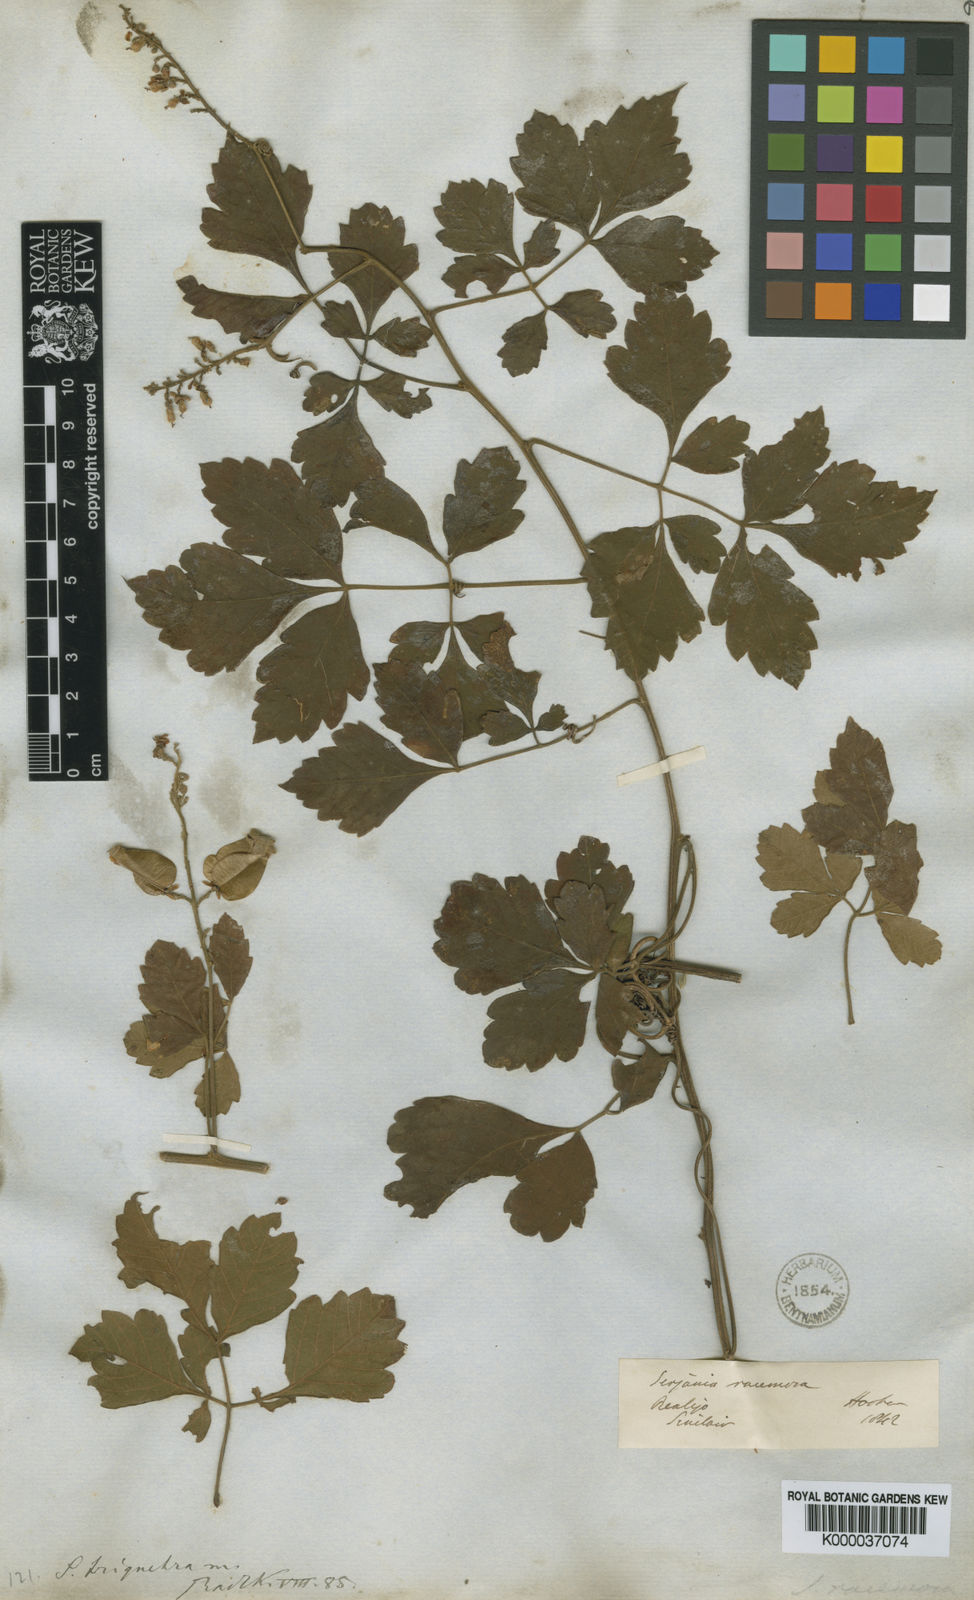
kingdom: Plantae
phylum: Tracheophyta
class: Magnoliopsida
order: Sapindales
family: Sapindaceae
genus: Serjania
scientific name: Serjania triquetra
